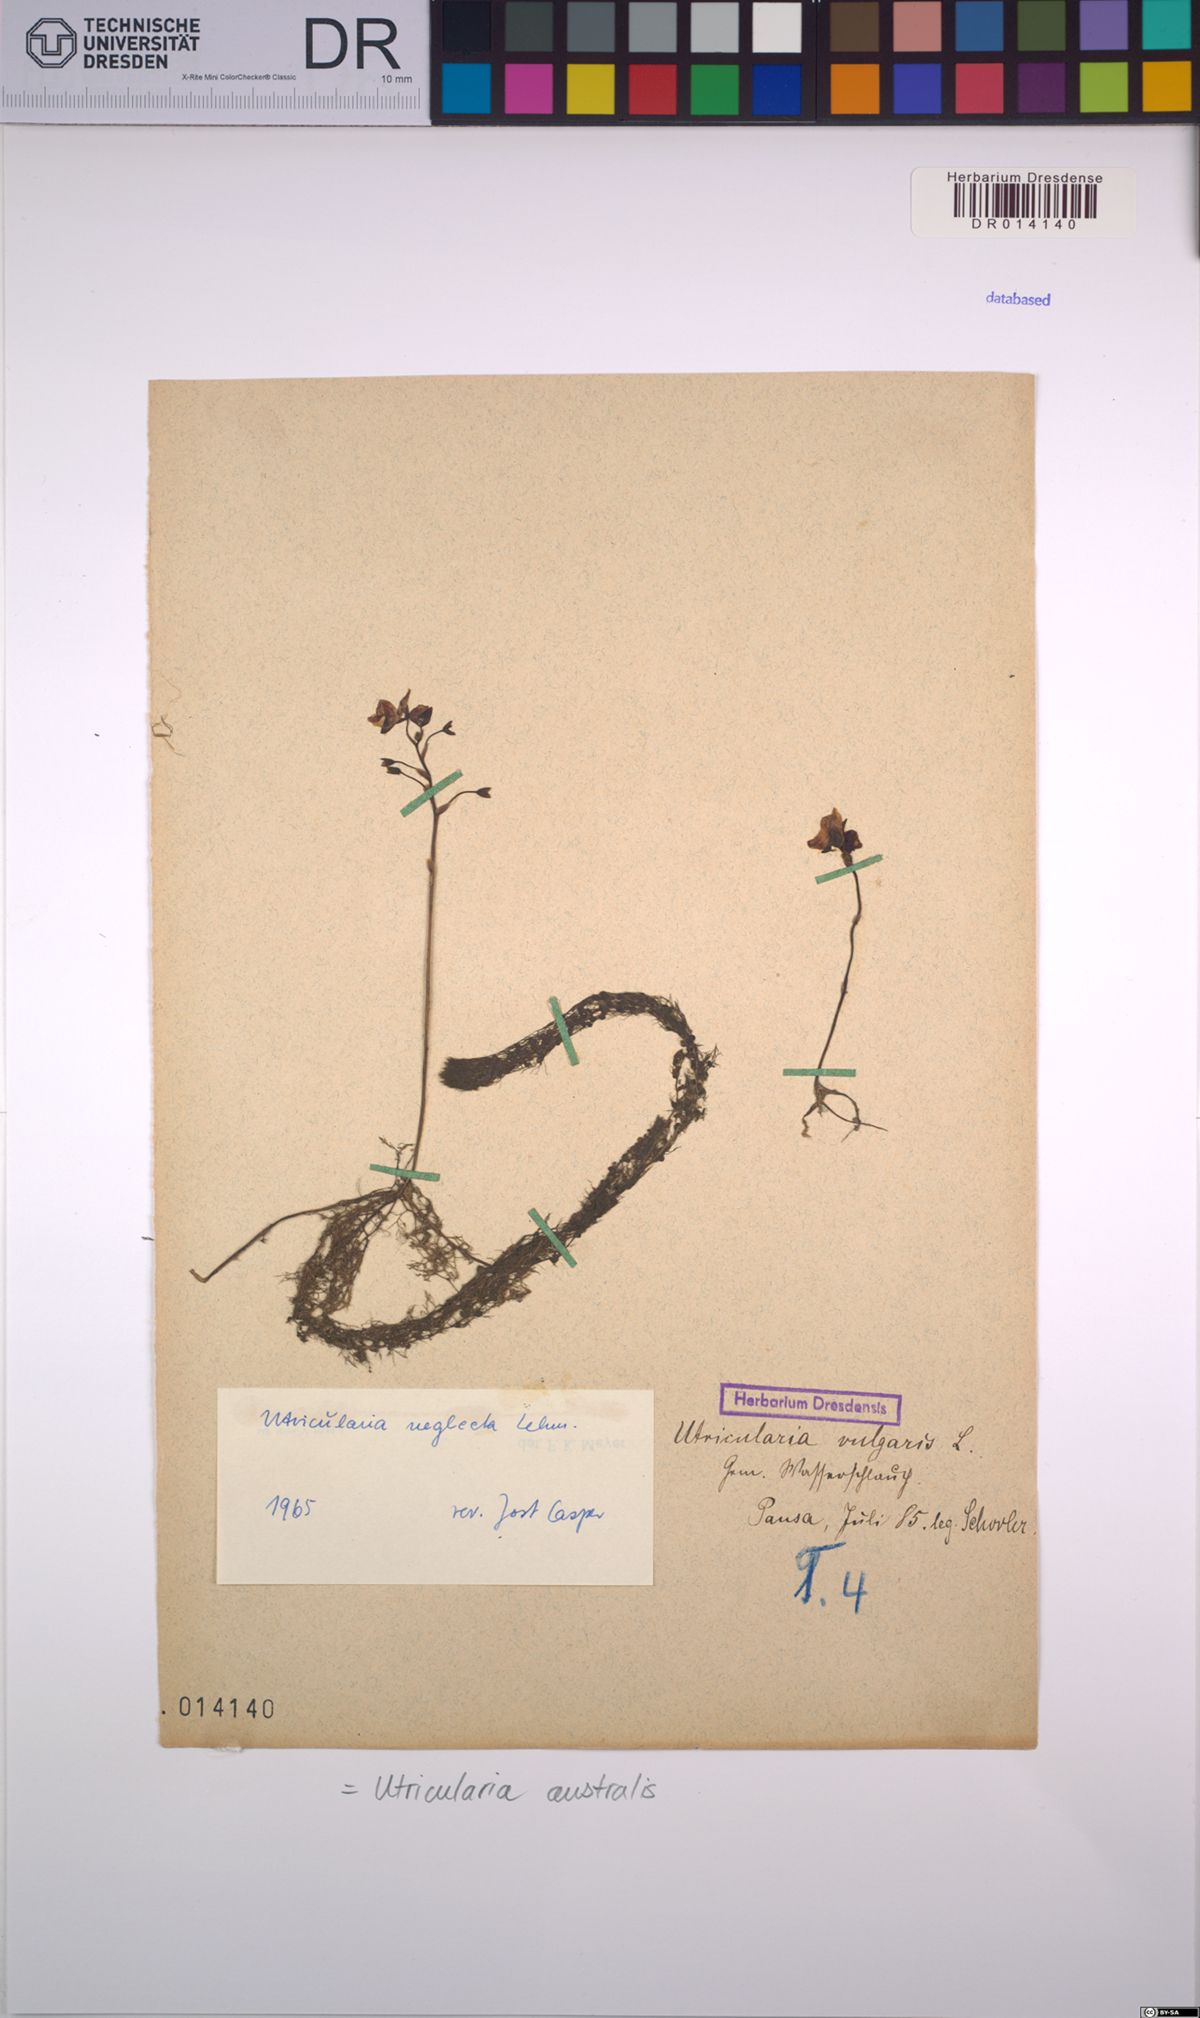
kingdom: Plantae
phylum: Tracheophyta
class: Magnoliopsida
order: Lamiales
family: Lentibulariaceae
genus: Utricularia
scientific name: Utricularia australis
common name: Bladderwort
